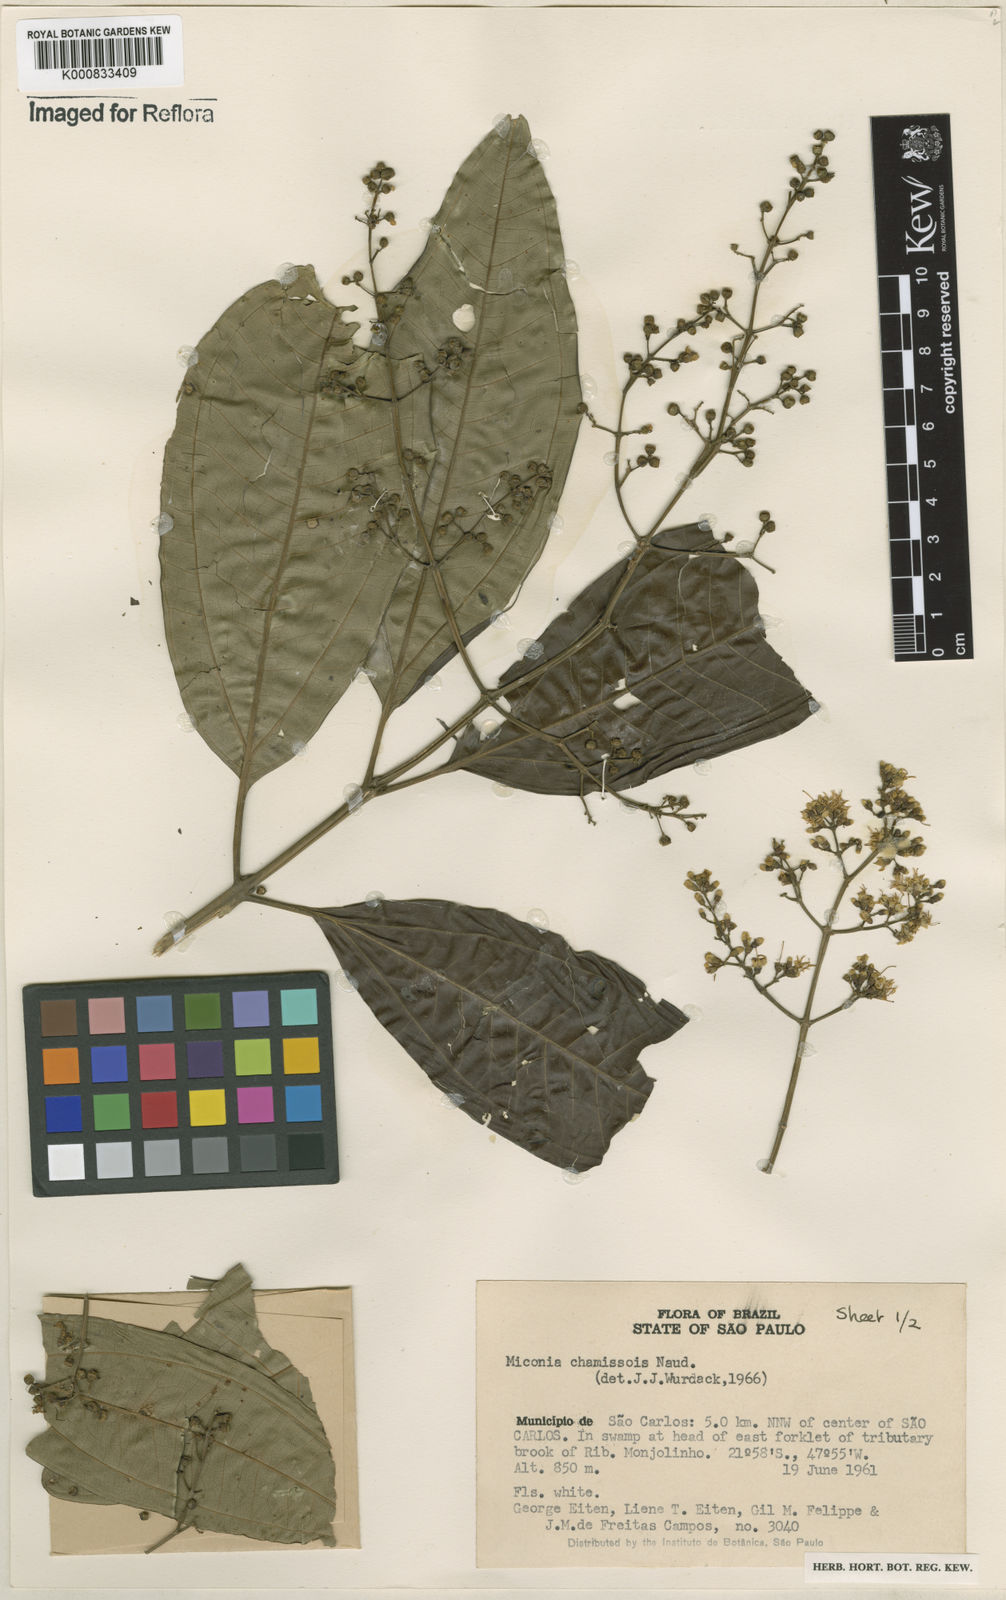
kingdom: Plantae
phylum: Tracheophyta
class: Magnoliopsida
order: Myrtales
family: Melastomataceae
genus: Miconia
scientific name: Miconia chamissois
